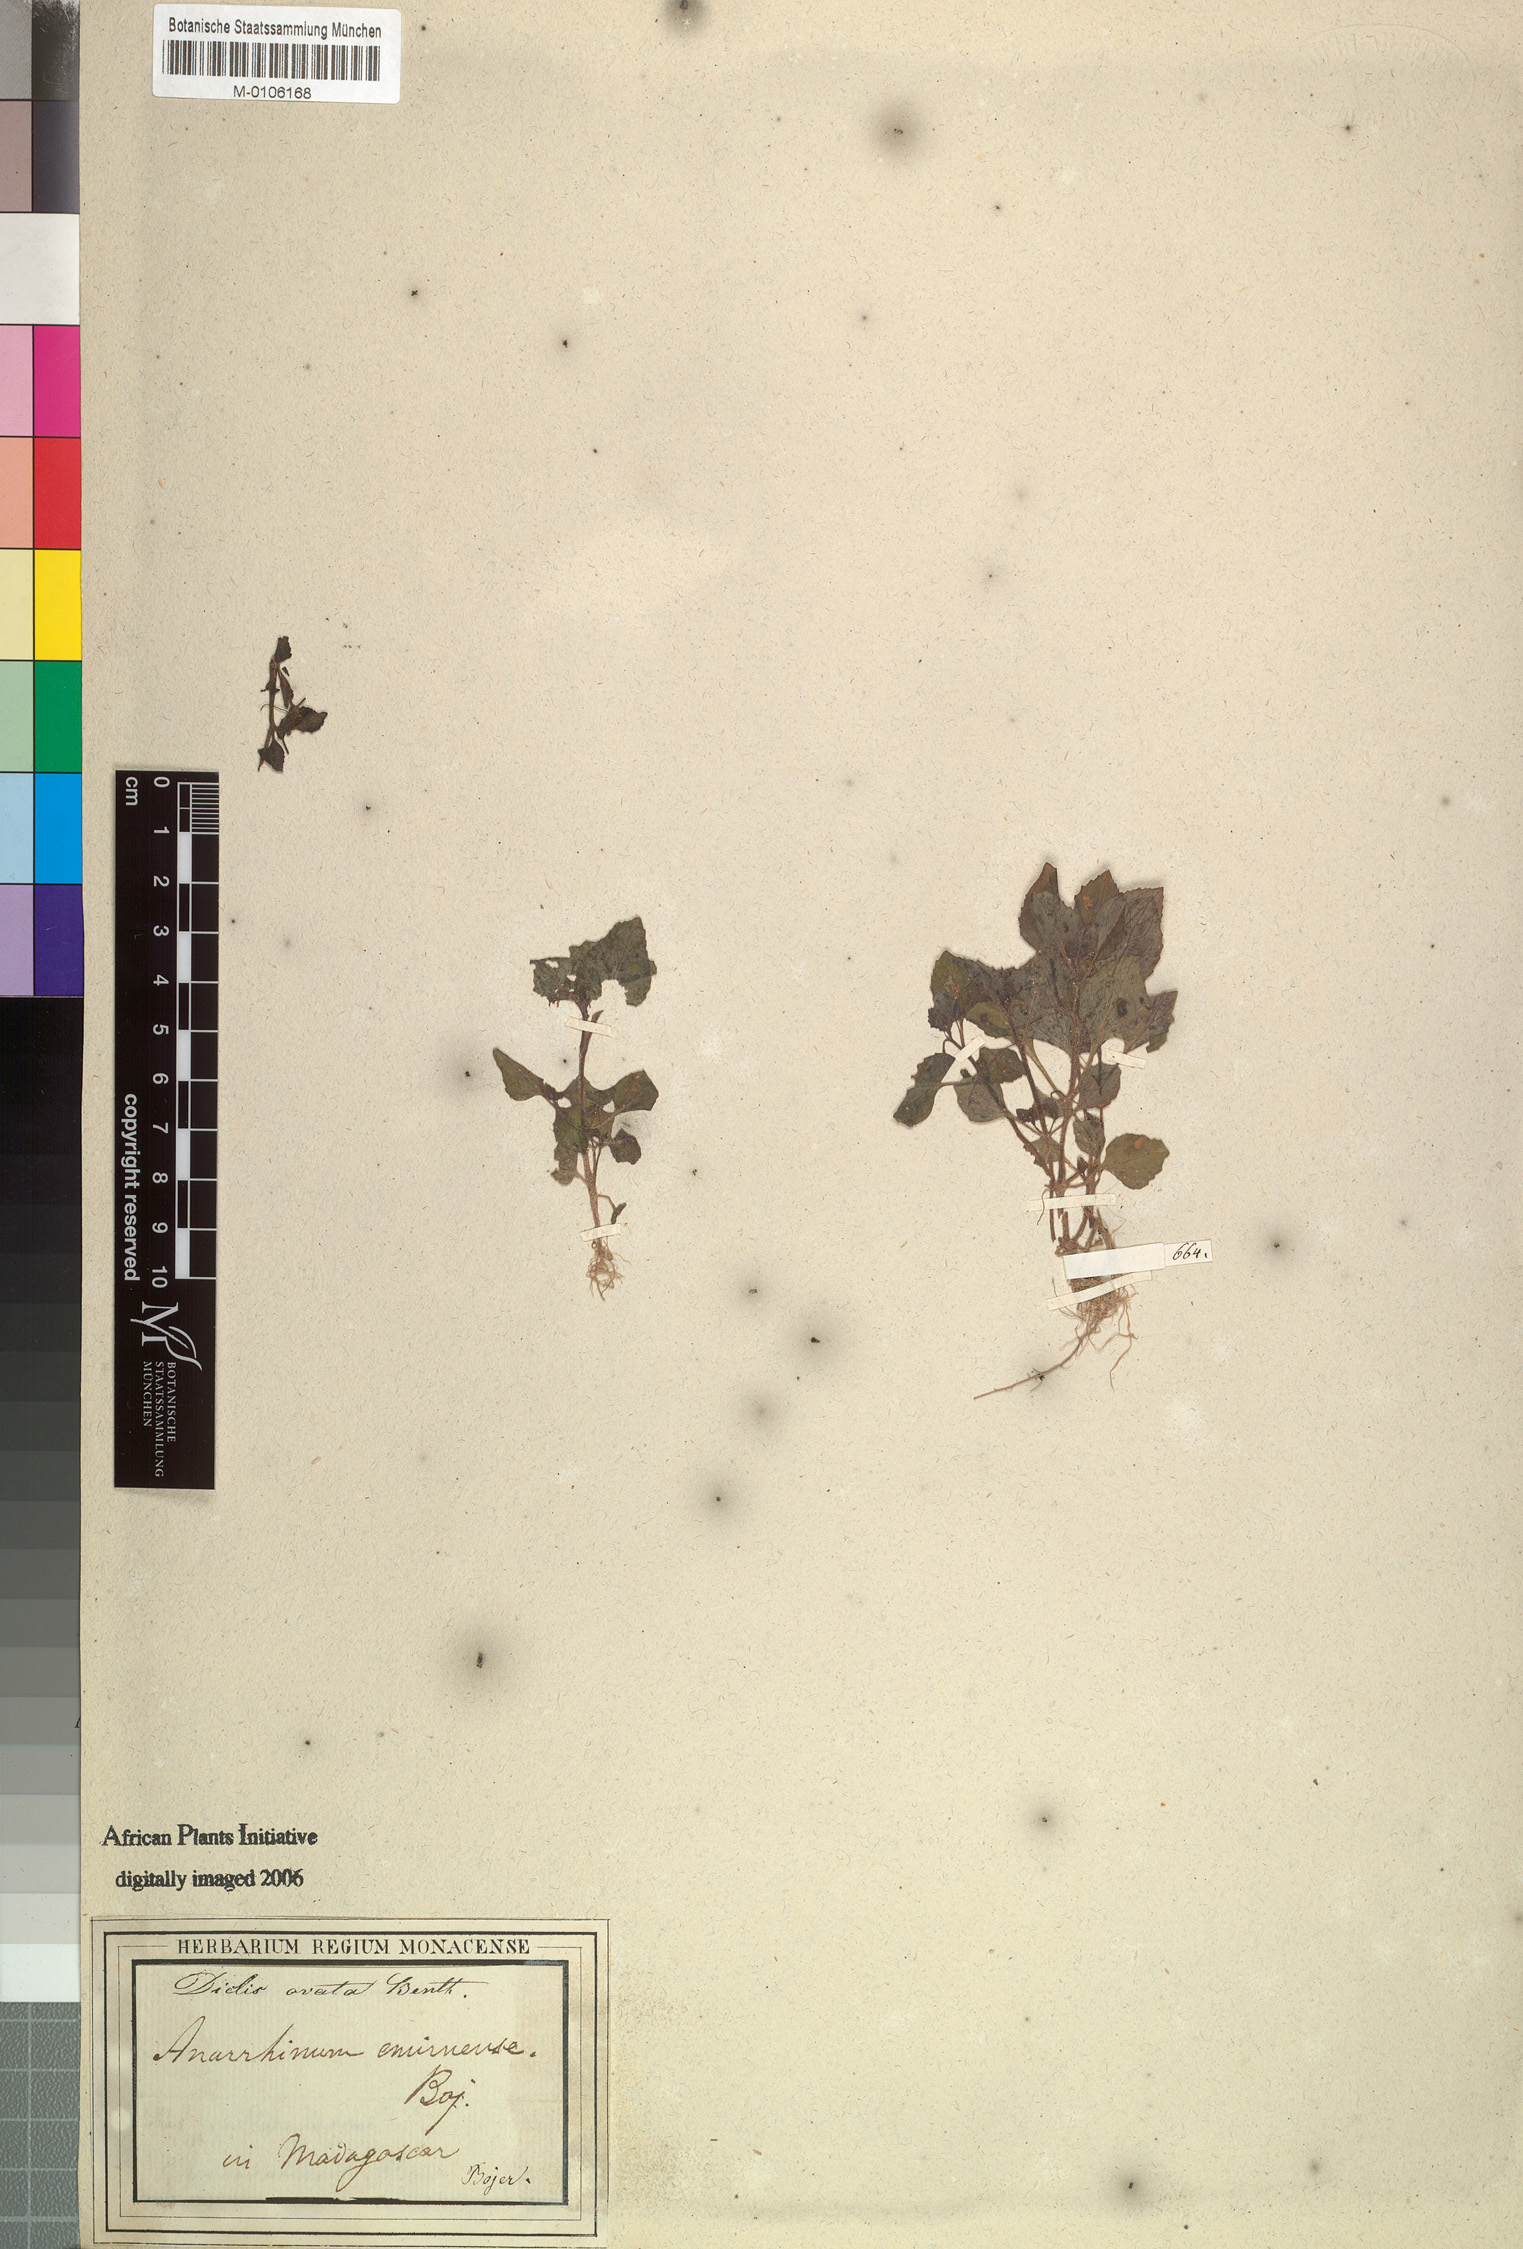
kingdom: Plantae
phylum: Tracheophyta
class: Magnoliopsida
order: Lamiales
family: Scrophulariaceae
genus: Diclis
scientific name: Diclis ovata
